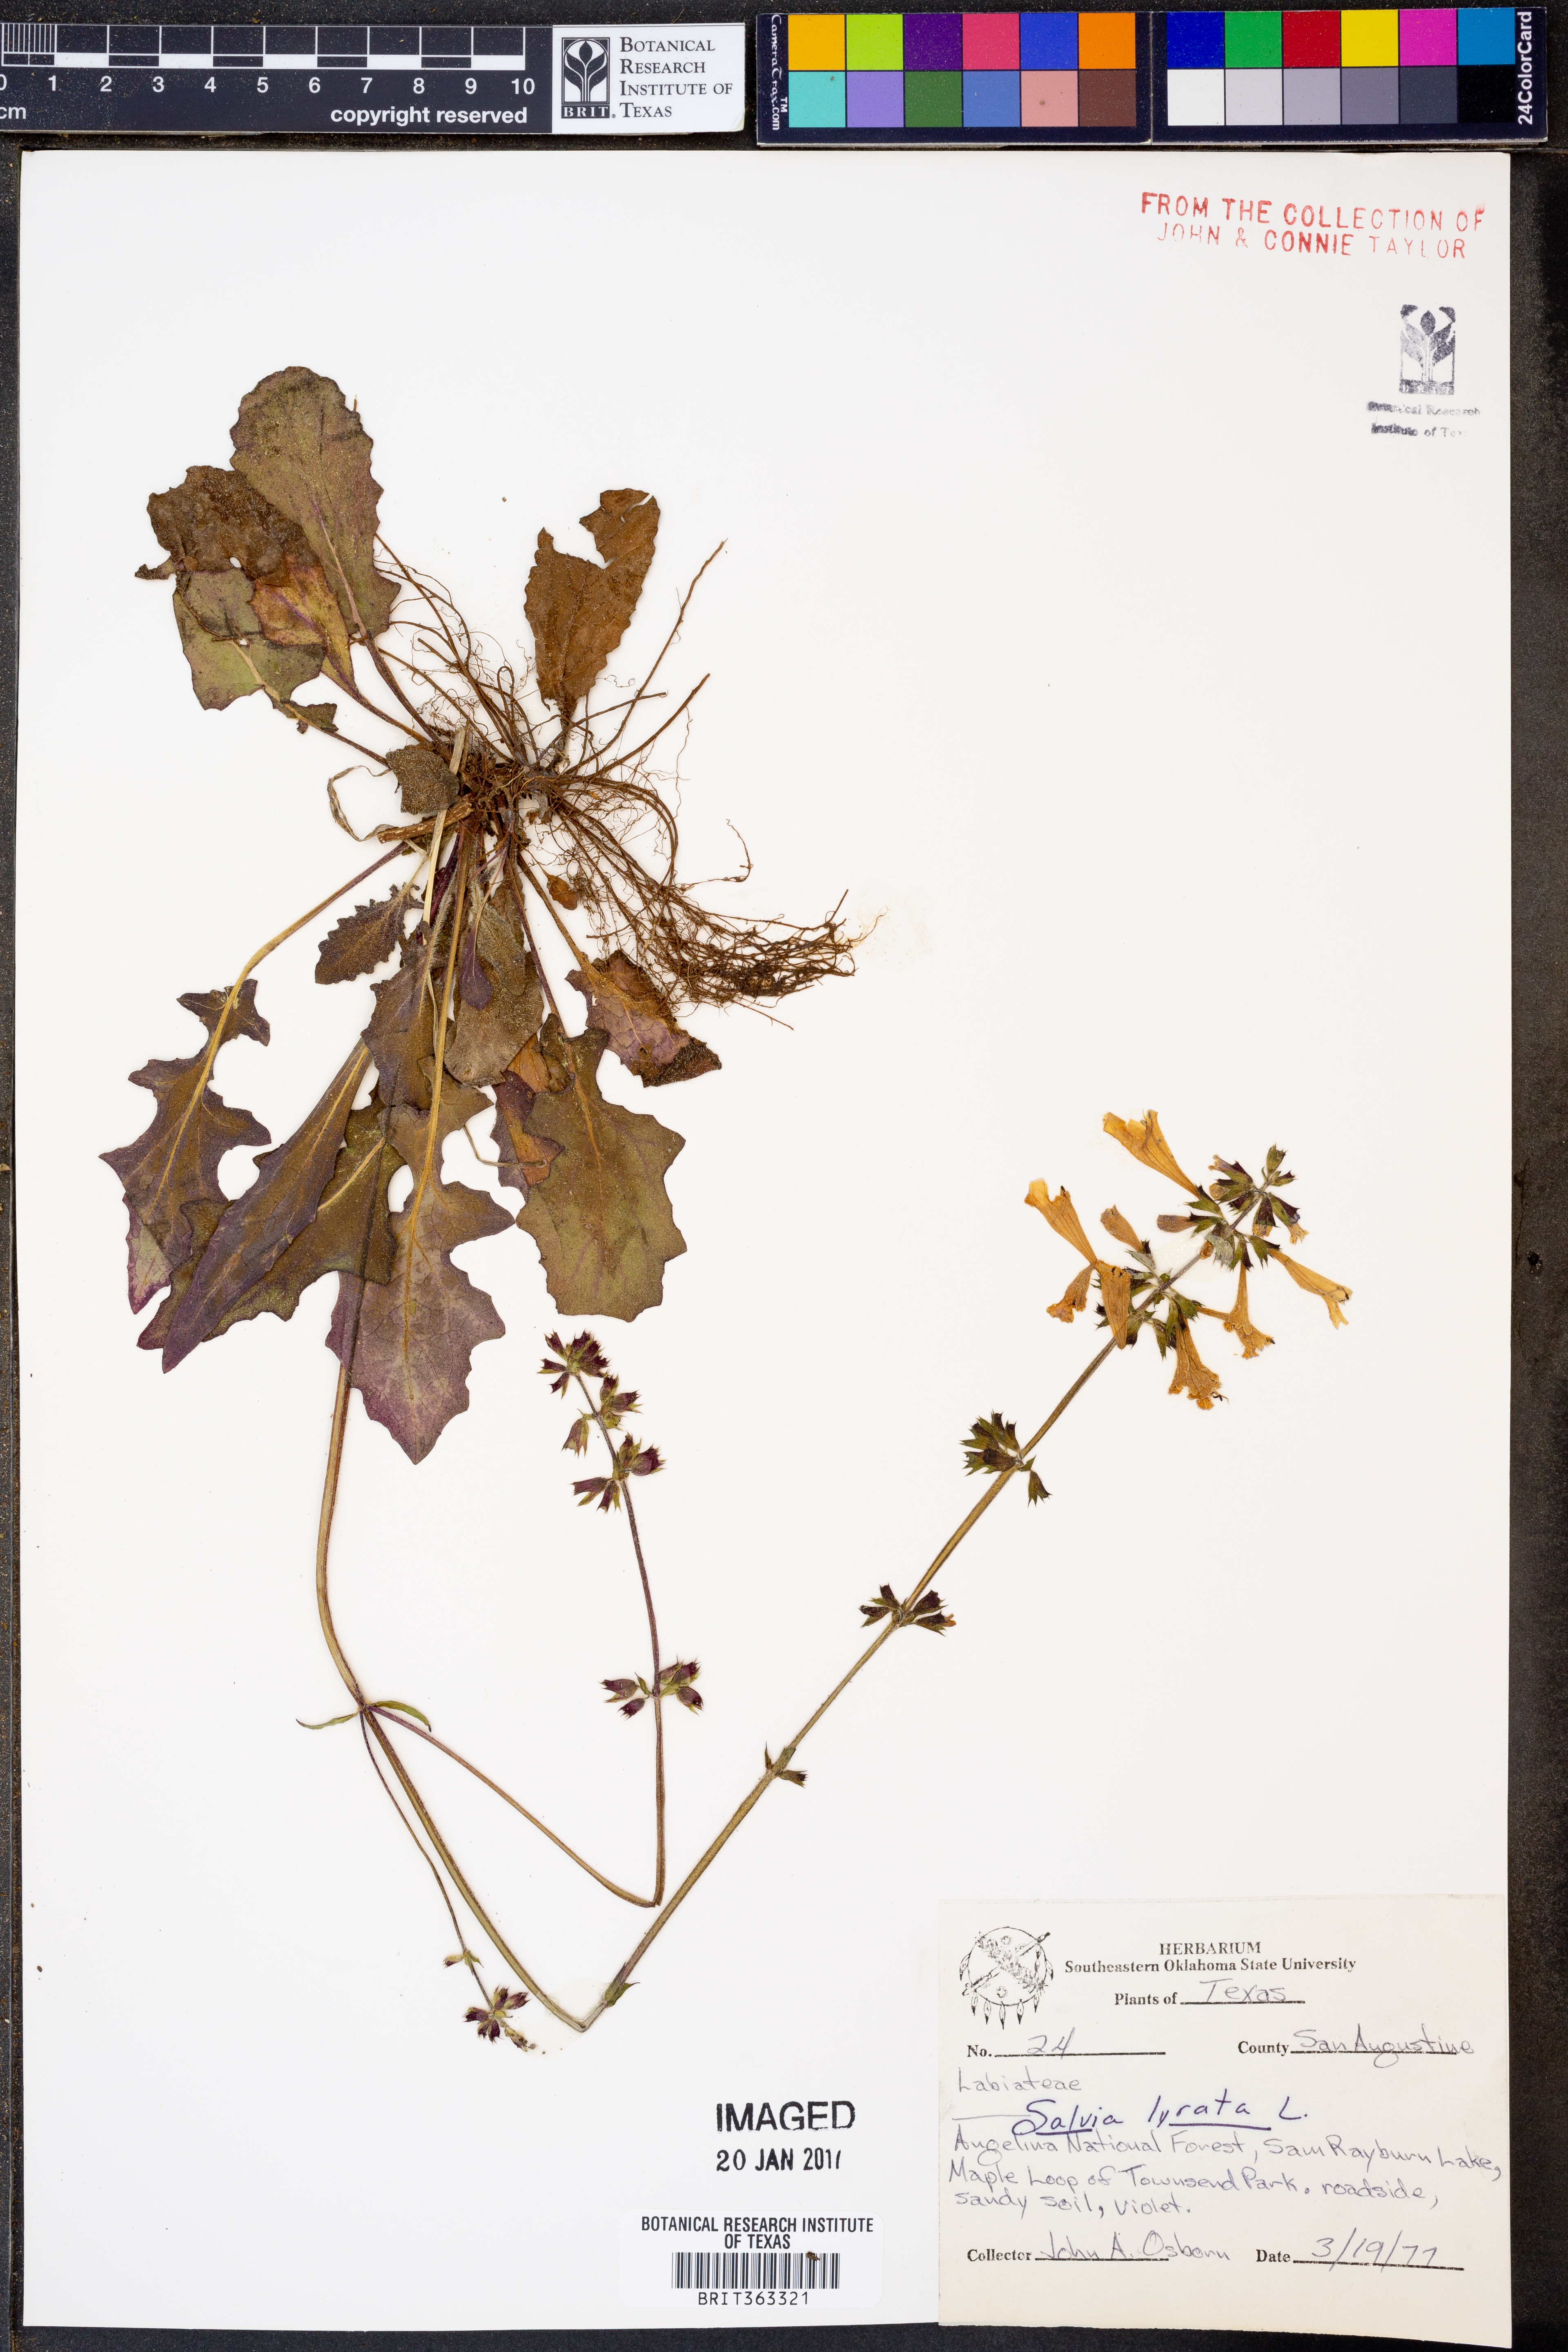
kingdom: Plantae
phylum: Tracheophyta
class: Magnoliopsida
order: Lamiales
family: Lamiaceae
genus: Salvia
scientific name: Salvia lyrata
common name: Cancerweed
